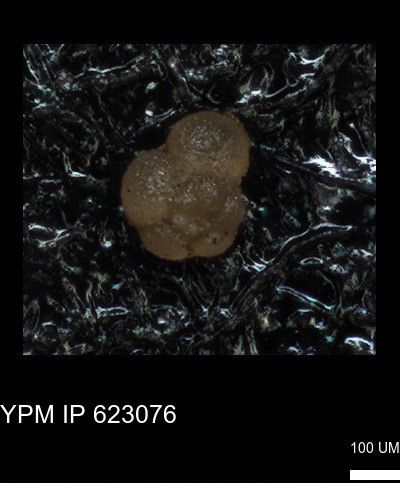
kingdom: Chromista
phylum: Foraminifera
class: Globothalamea
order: Rotaliida
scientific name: Rotaliida
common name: forams
